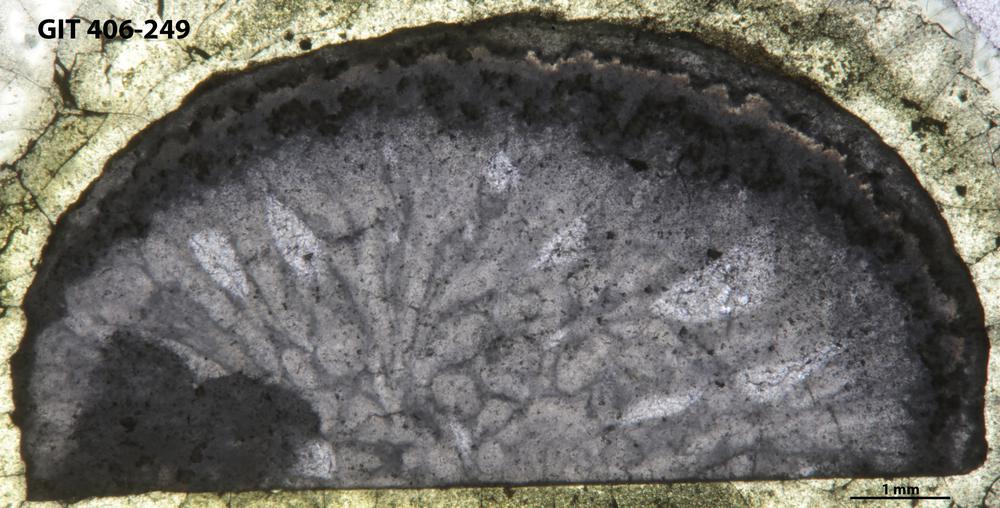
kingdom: Animalia
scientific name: Animalia
